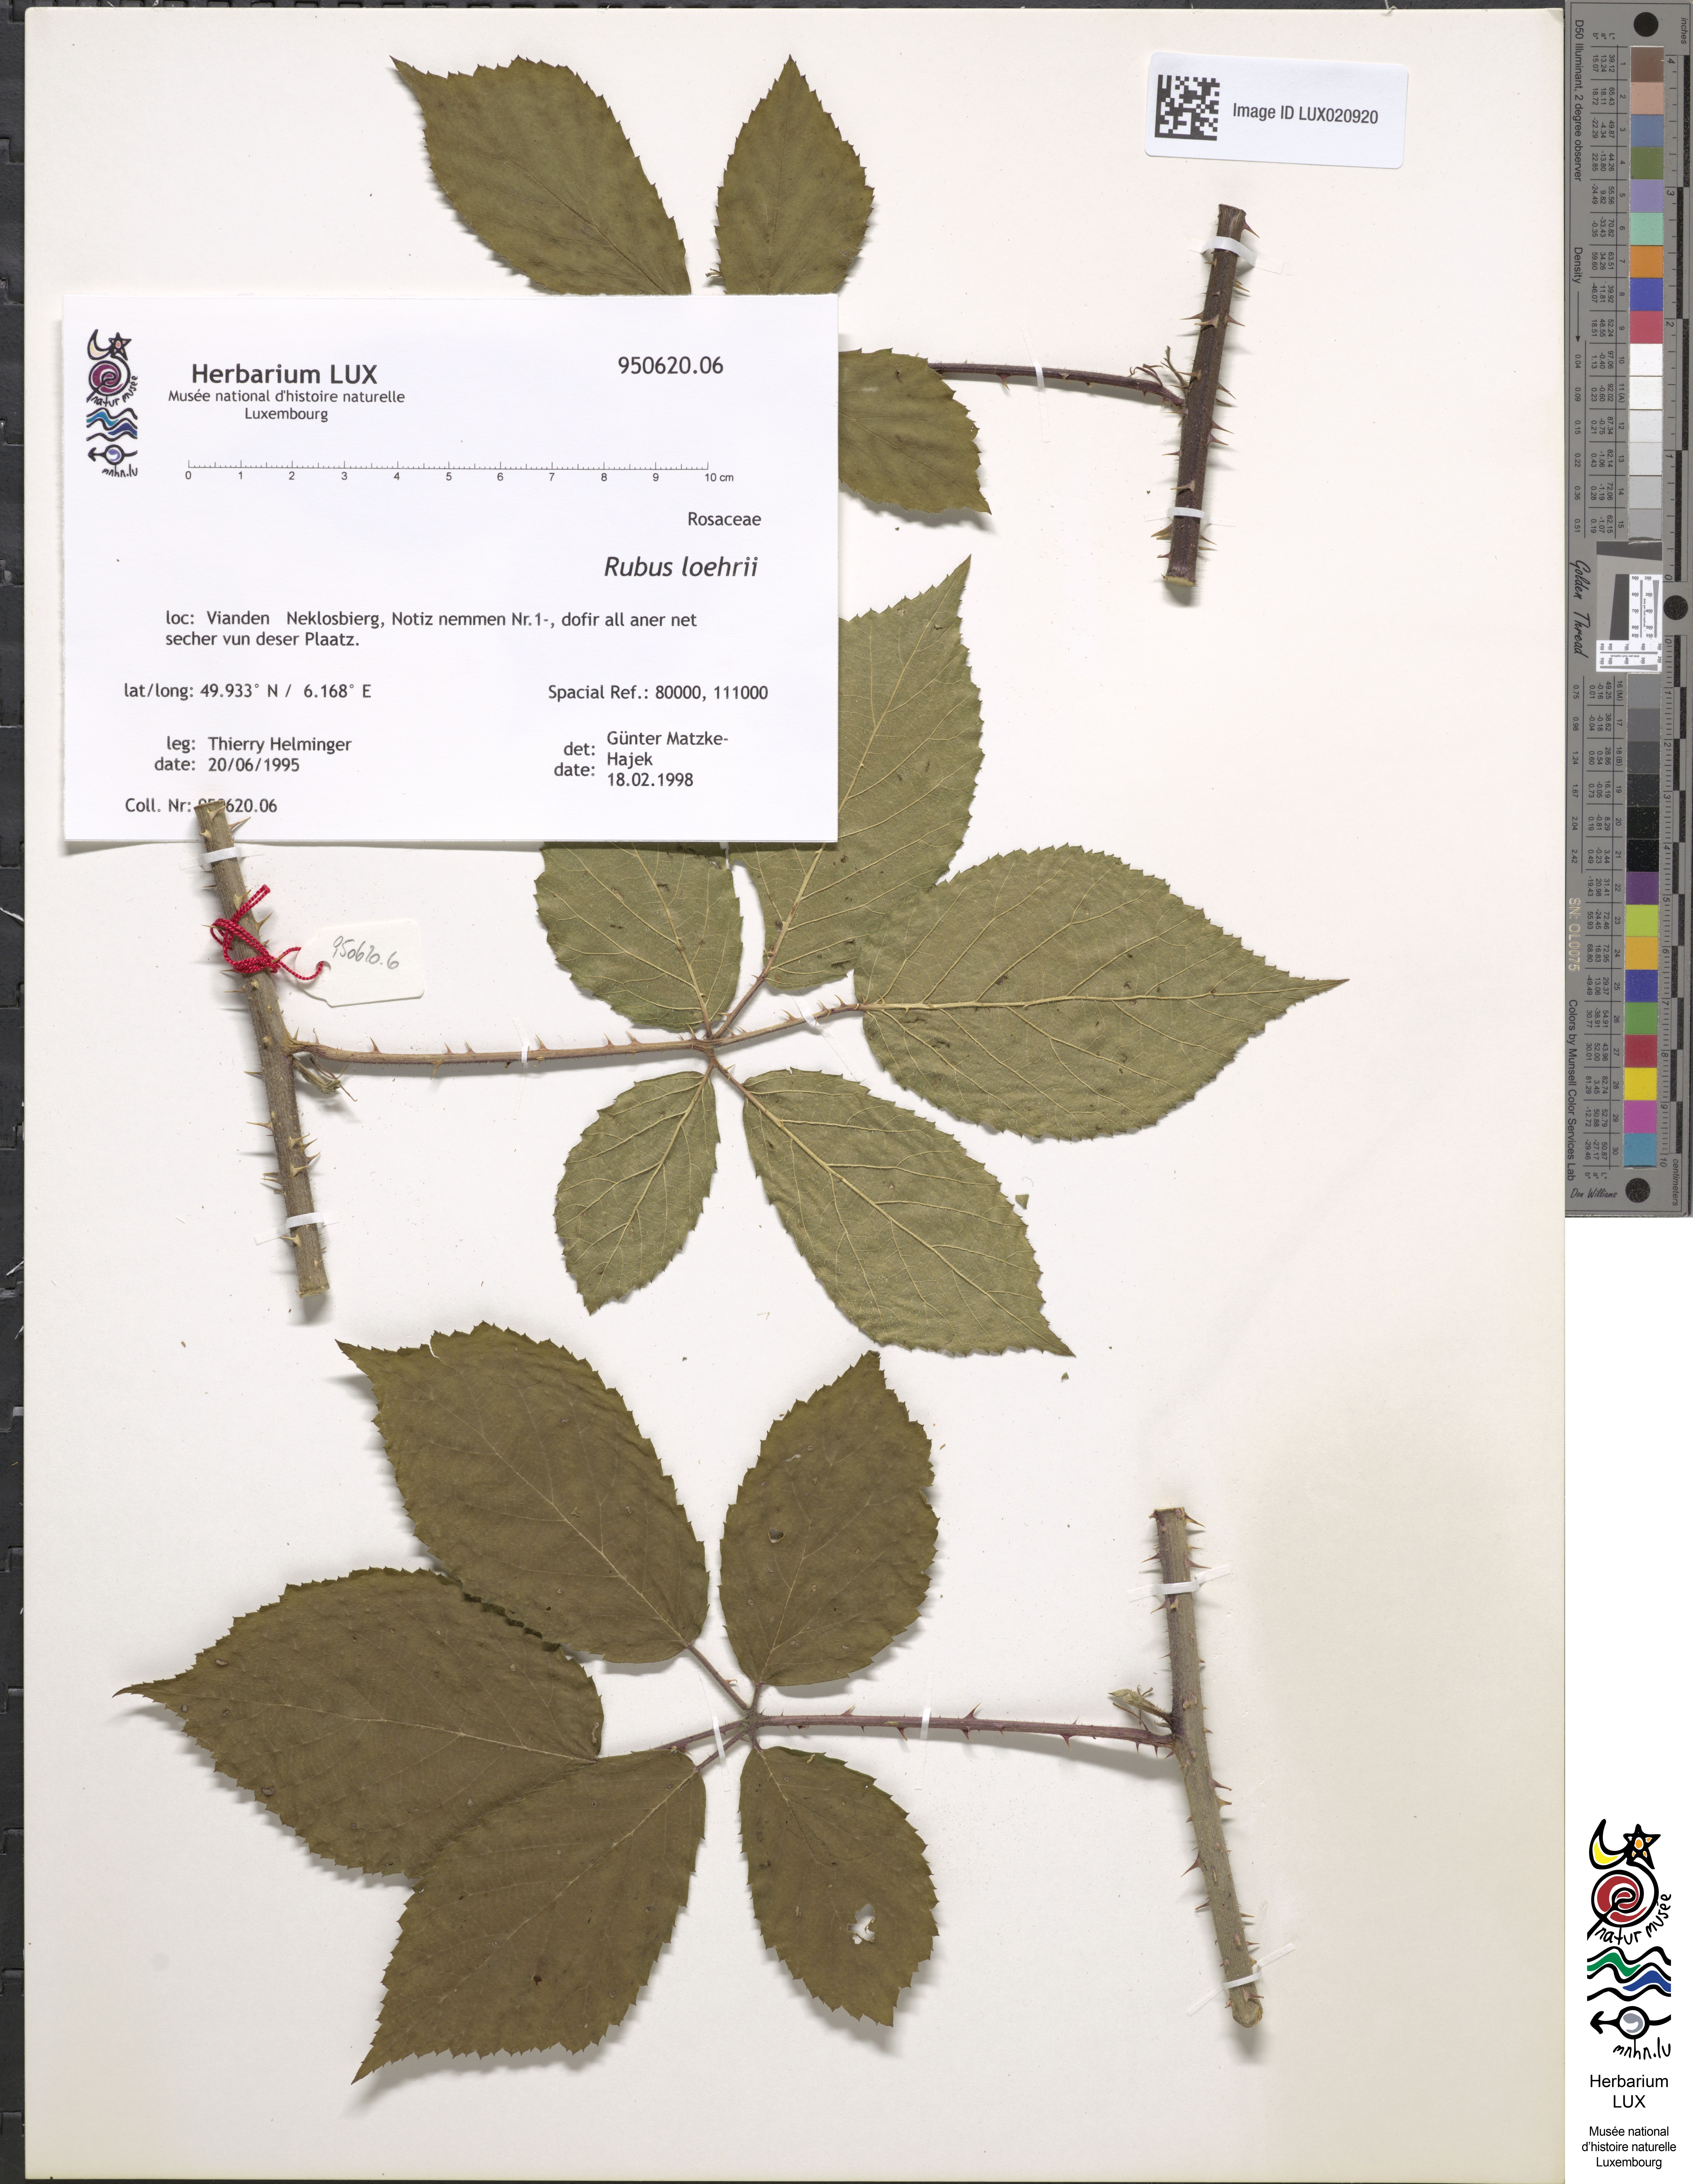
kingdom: Plantae
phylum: Tracheophyta
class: Magnoliopsida
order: Rosales
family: Rosaceae
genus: Rubus
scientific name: Rubus loehrii
